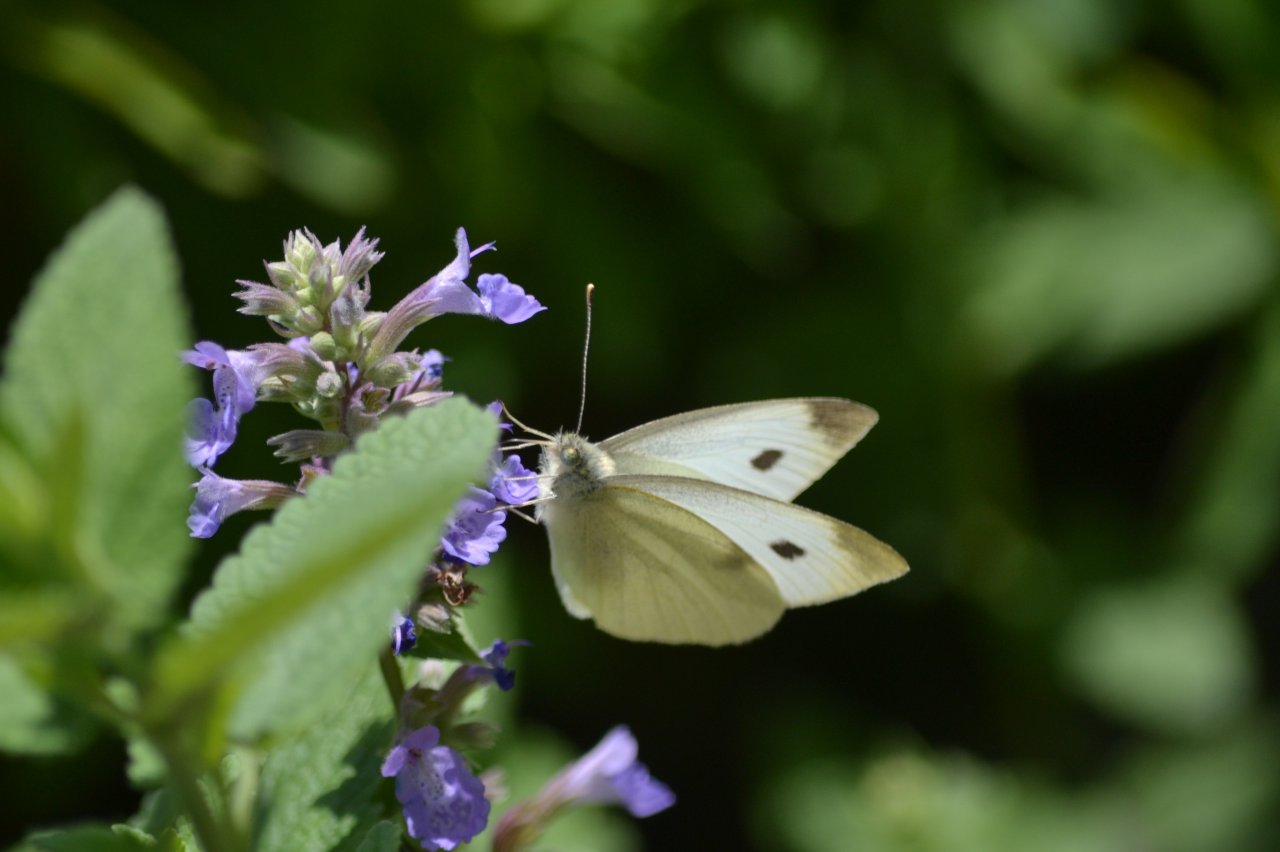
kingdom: Animalia
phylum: Arthropoda
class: Insecta
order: Lepidoptera
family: Pieridae
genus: Pieris
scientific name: Pieris rapae
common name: Cabbage White
